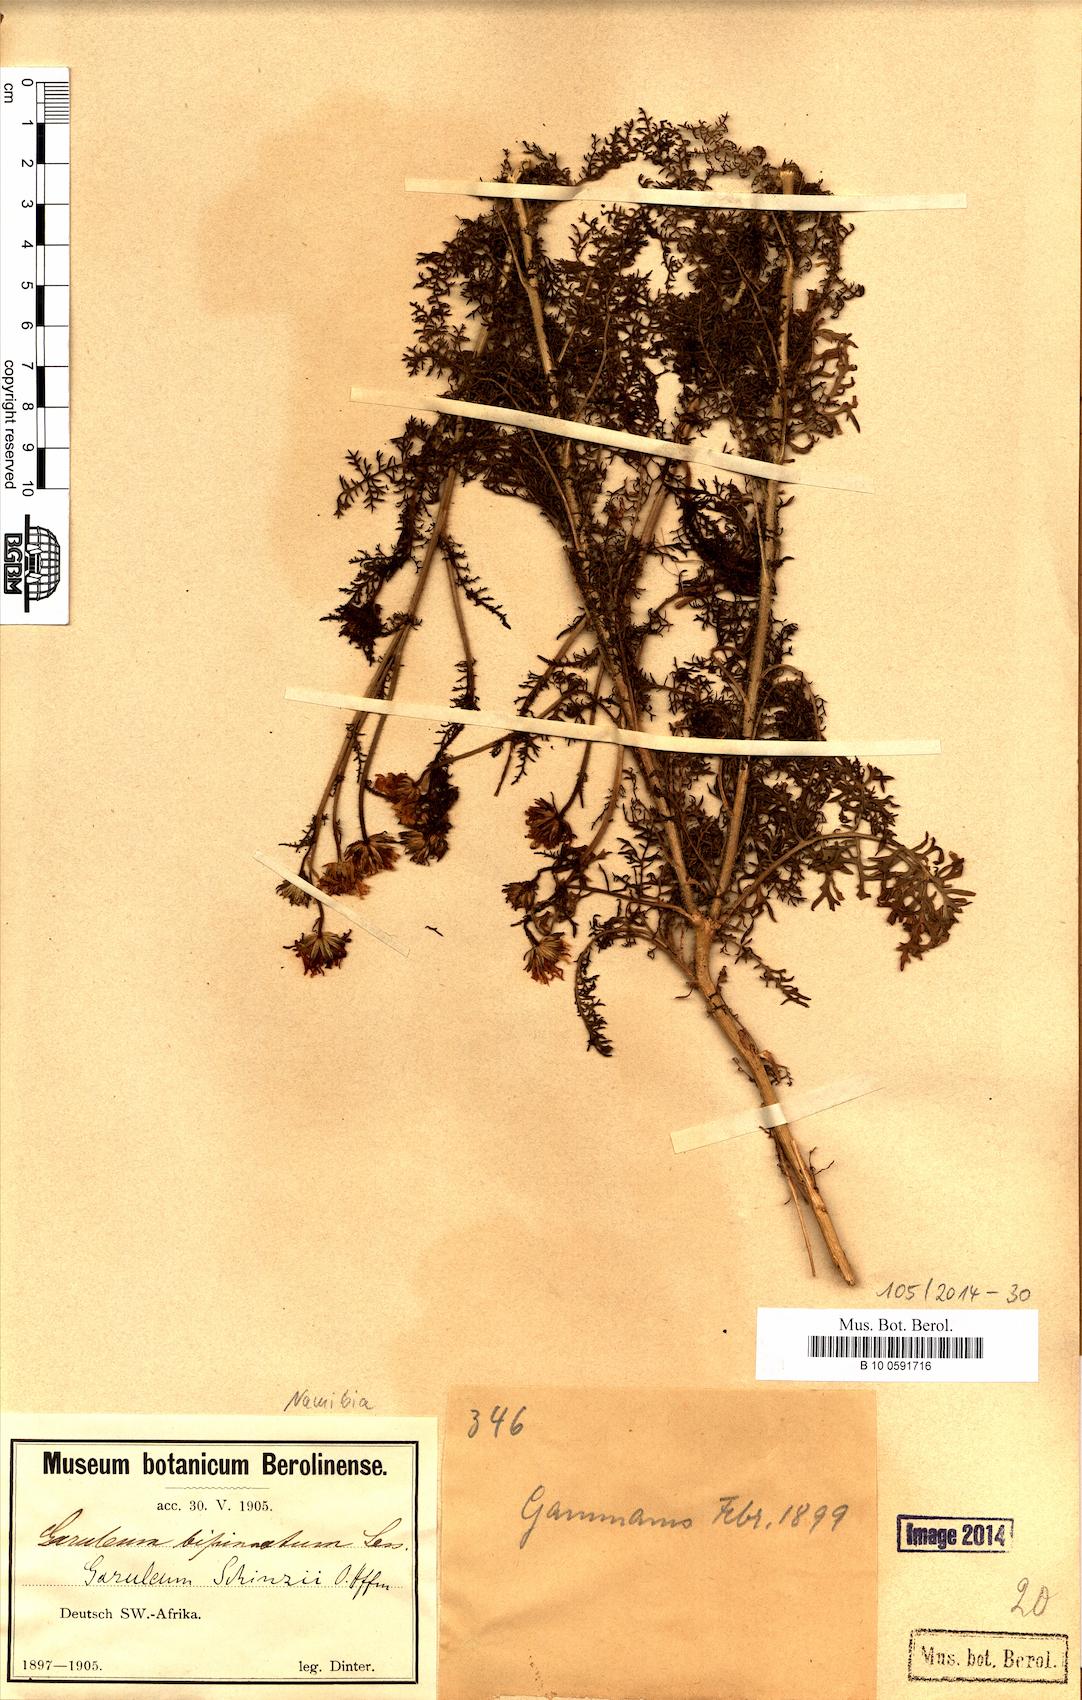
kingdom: Plantae
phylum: Tracheophyta
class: Magnoliopsida
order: Asterales
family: Asteraceae
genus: Garuleum
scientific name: Garuleum schinzii
